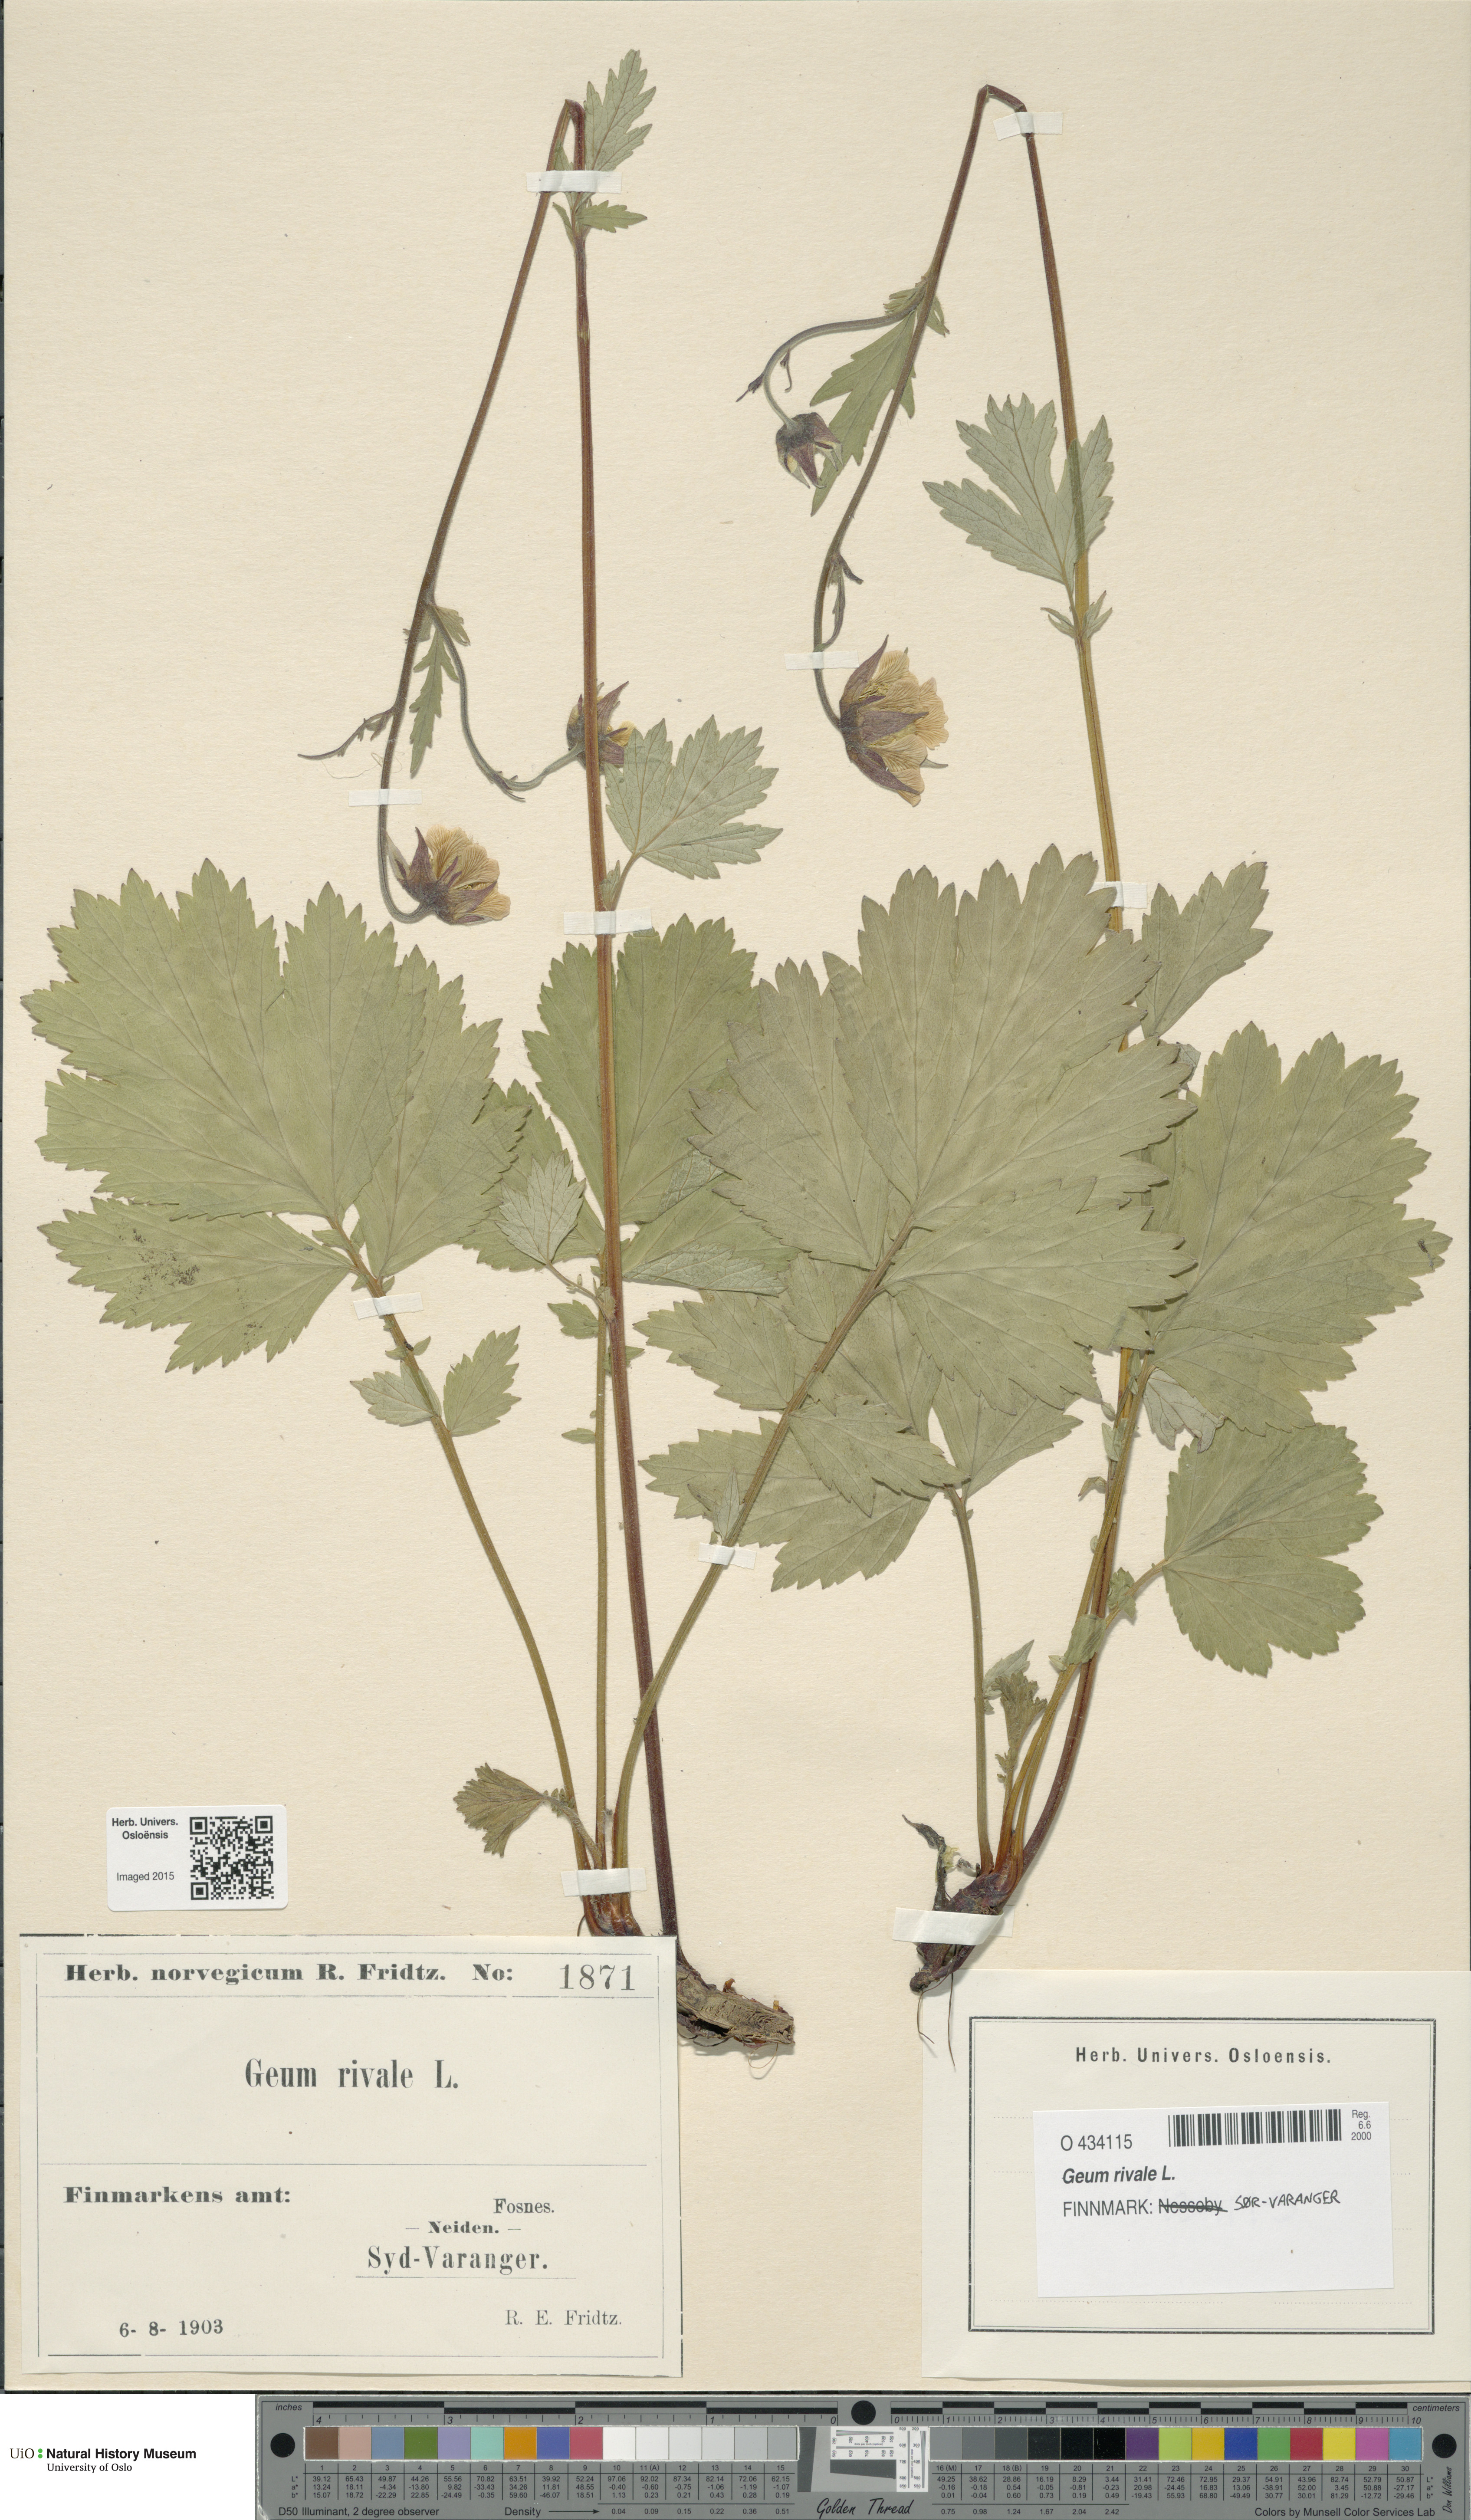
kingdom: Plantae
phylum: Tracheophyta
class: Magnoliopsida
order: Rosales
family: Rosaceae
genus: Geum
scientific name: Geum rivale
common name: Water avens
